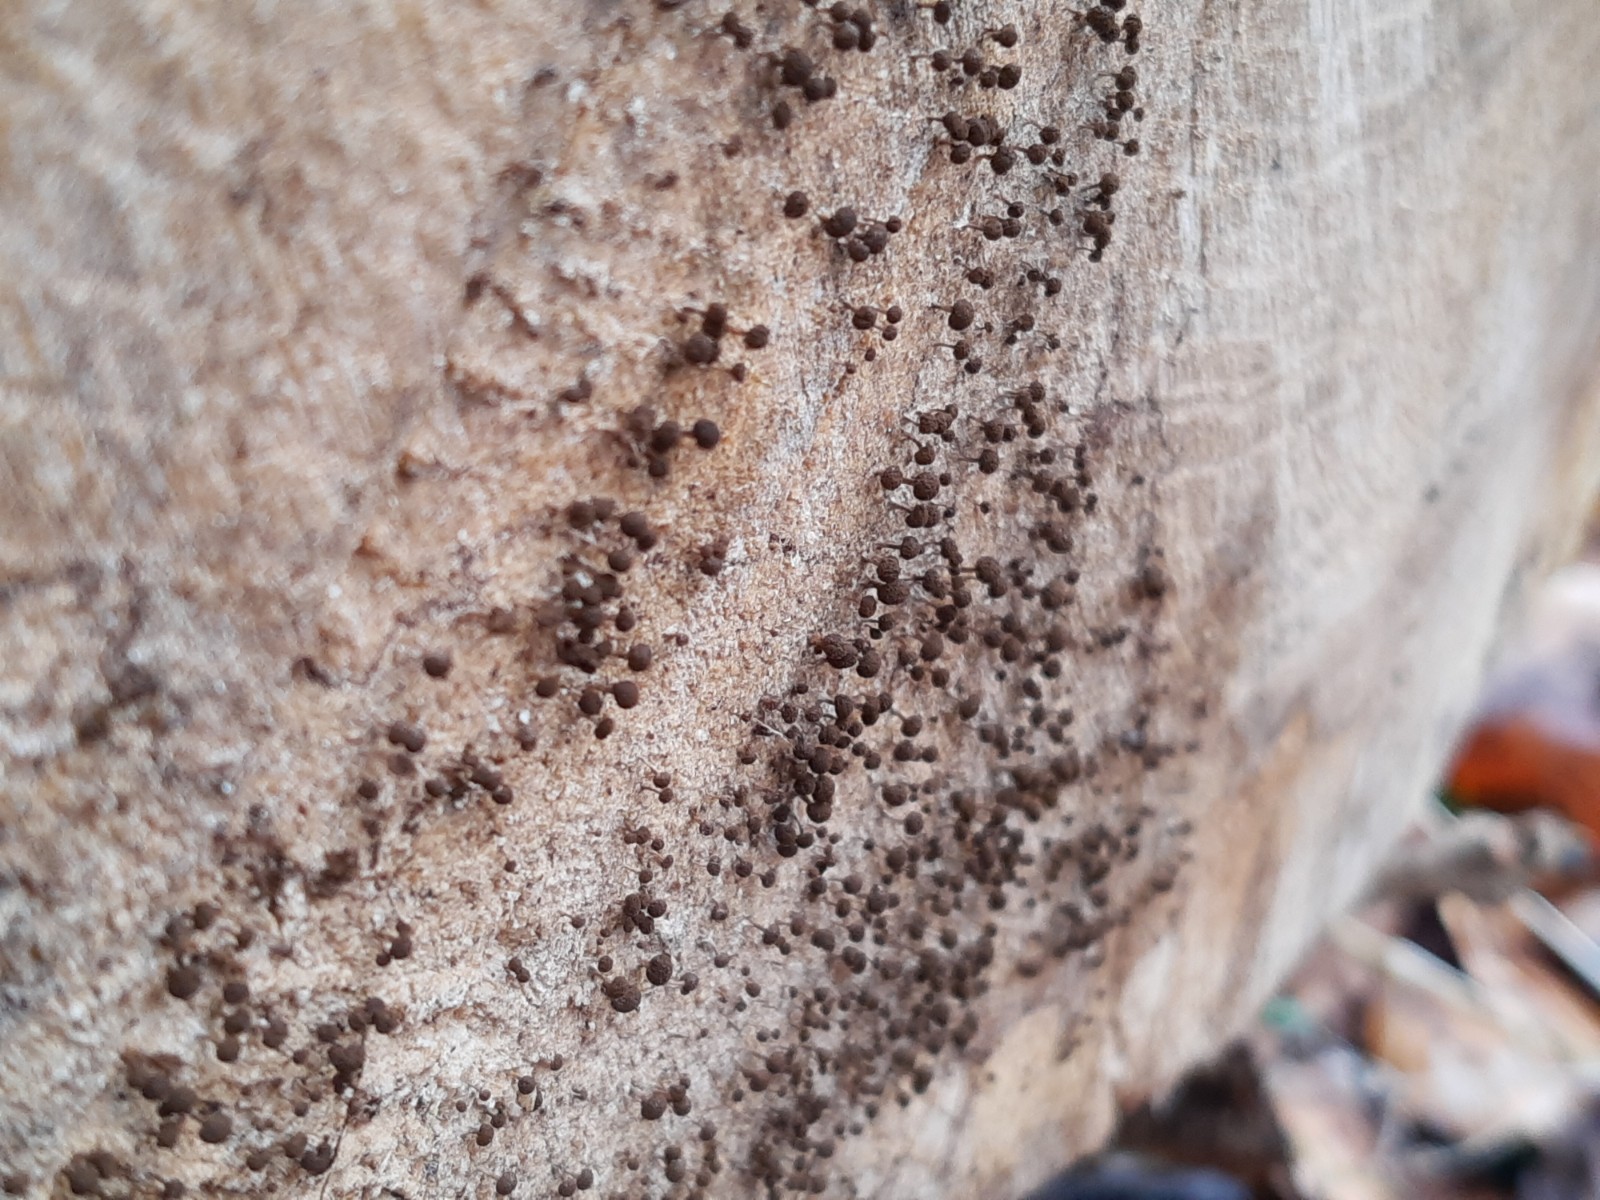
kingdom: Fungi
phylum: Basidiomycota
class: Atractiellomycetes
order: Atractiellales
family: Phleogenaceae
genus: Phleogena
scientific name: Phleogena faginea
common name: pudderkølle
